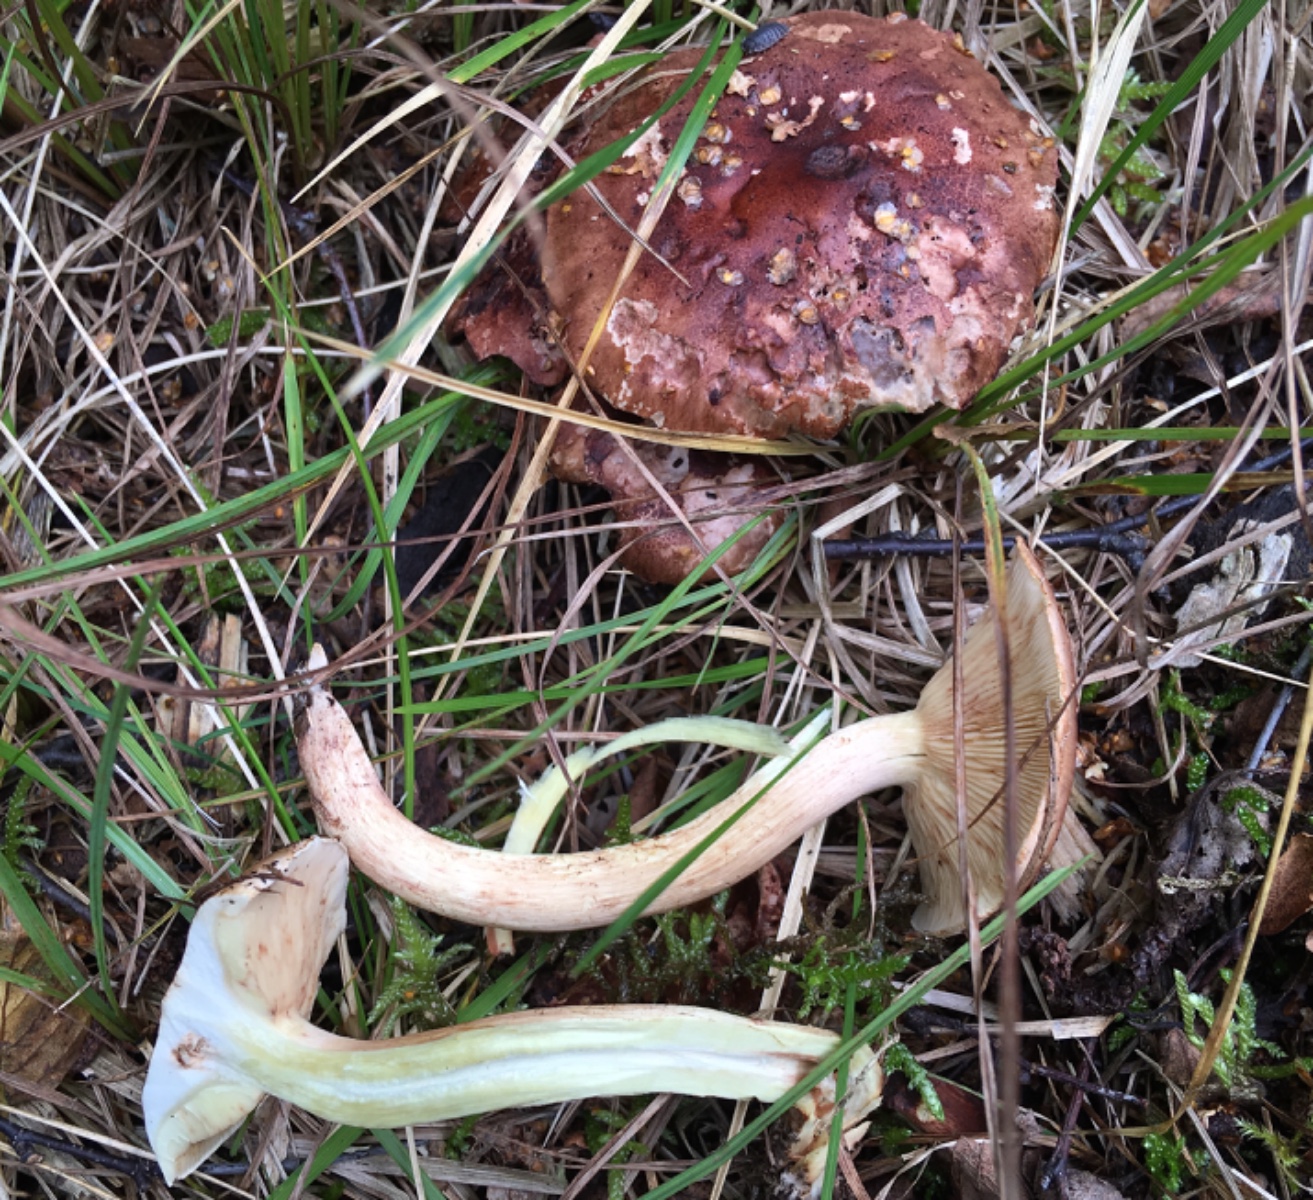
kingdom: Fungi
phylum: Basidiomycota
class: Agaricomycetes
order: Agaricales
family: Tricholomataceae
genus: Tricholoma
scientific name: Tricholoma fulvum
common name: birke-ridderhat
